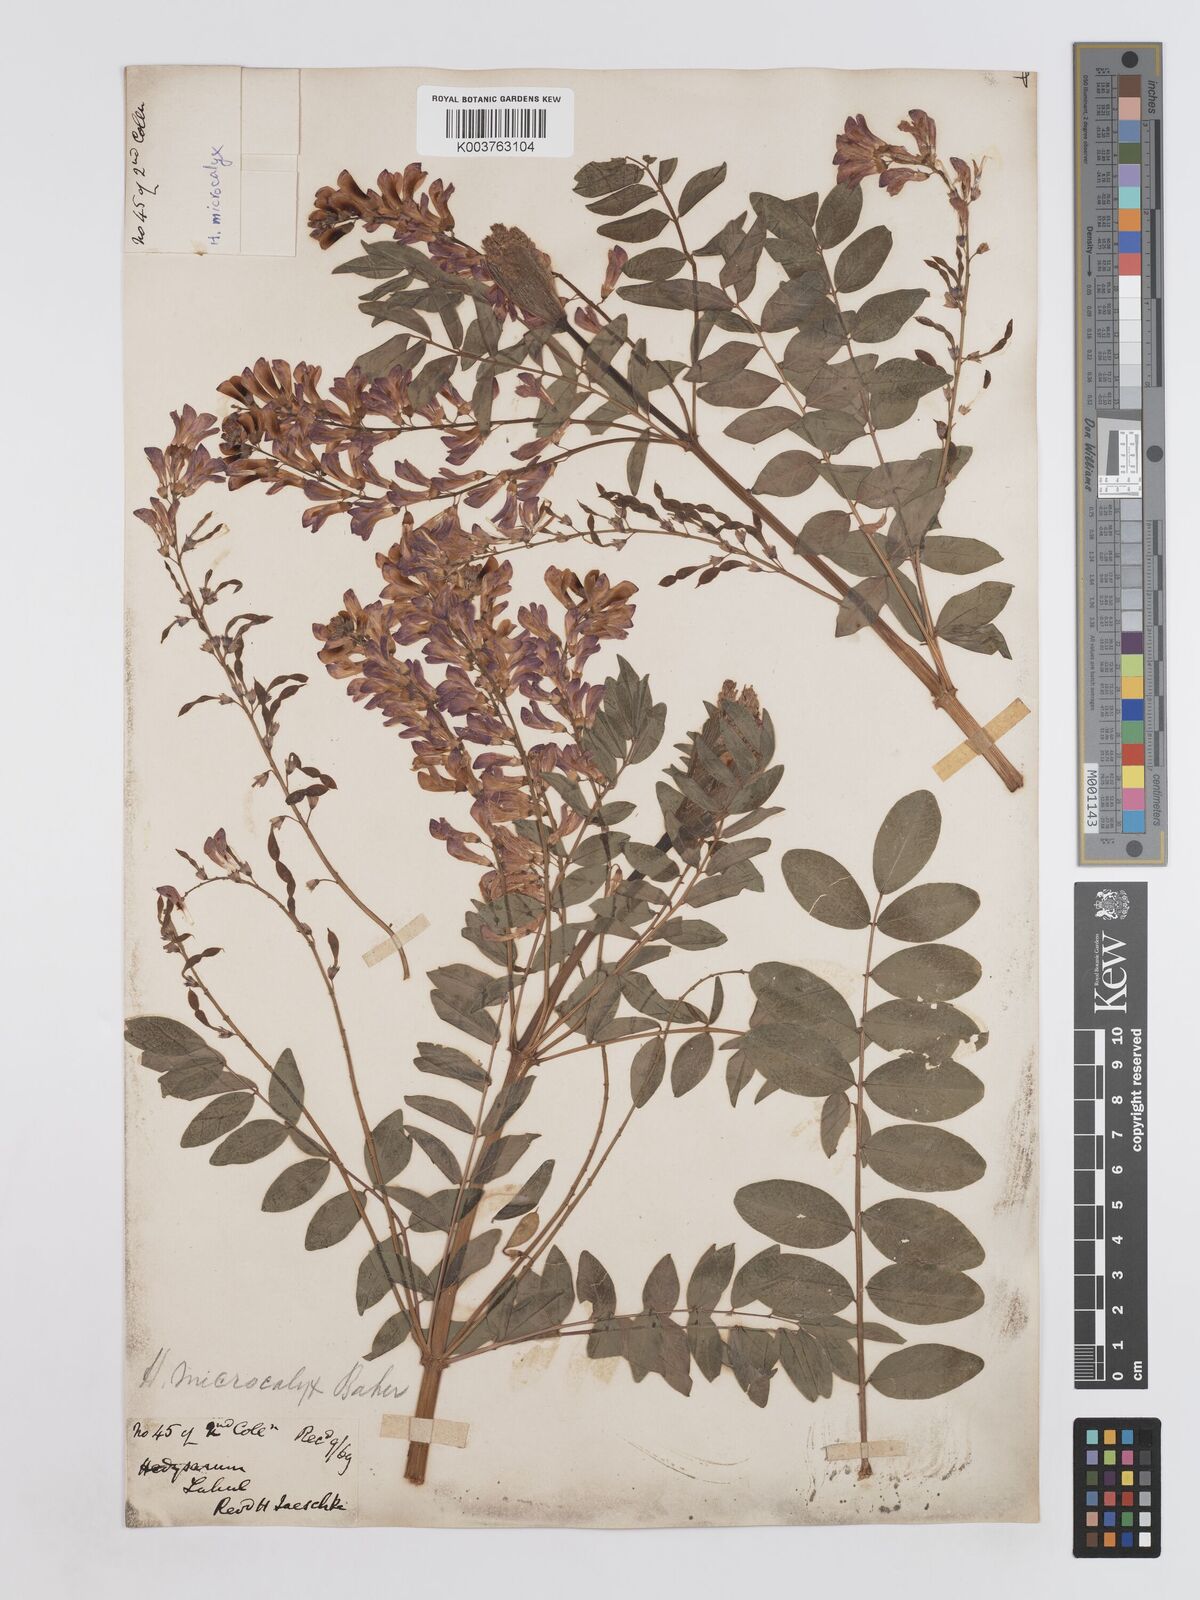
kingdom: Plantae
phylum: Tracheophyta
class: Magnoliopsida
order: Fabales
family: Fabaceae
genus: Hedysarum
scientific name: Hedysarum microcalyx
